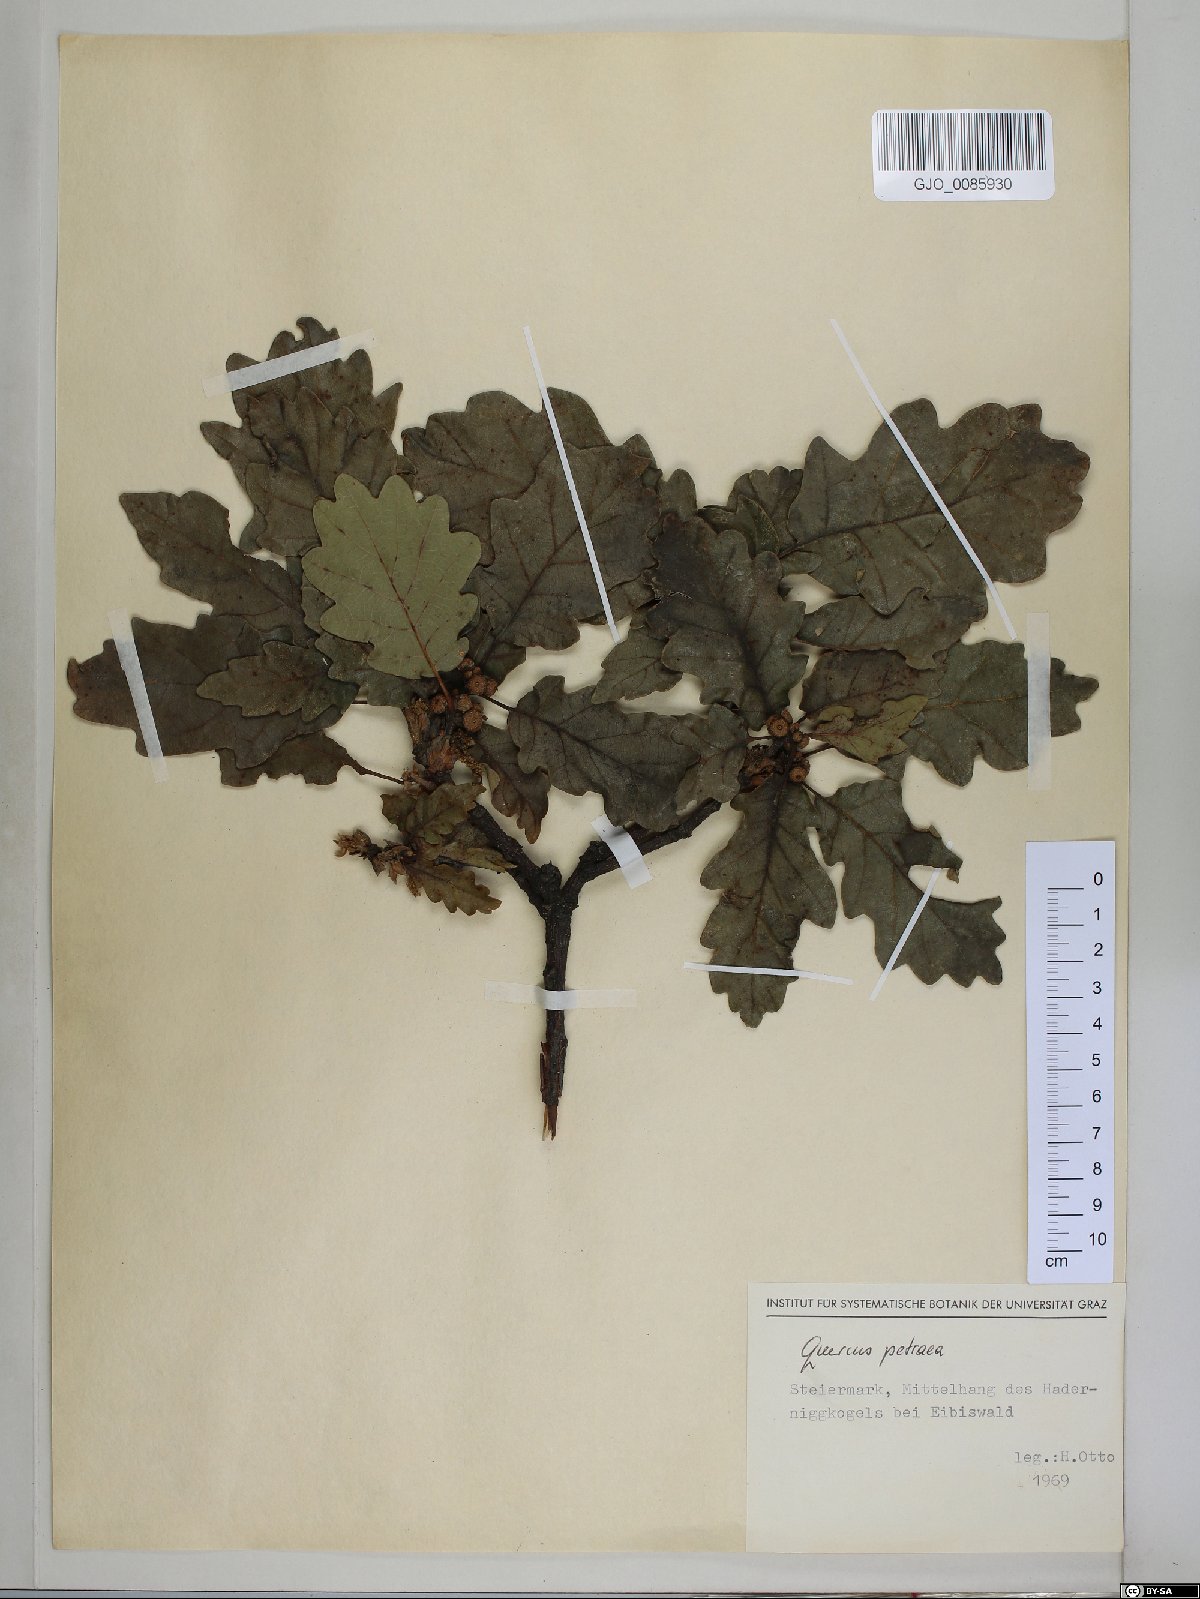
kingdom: Plantae
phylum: Tracheophyta
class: Magnoliopsida
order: Fagales
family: Fagaceae
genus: Quercus
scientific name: Quercus petraea
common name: Sessile oak
